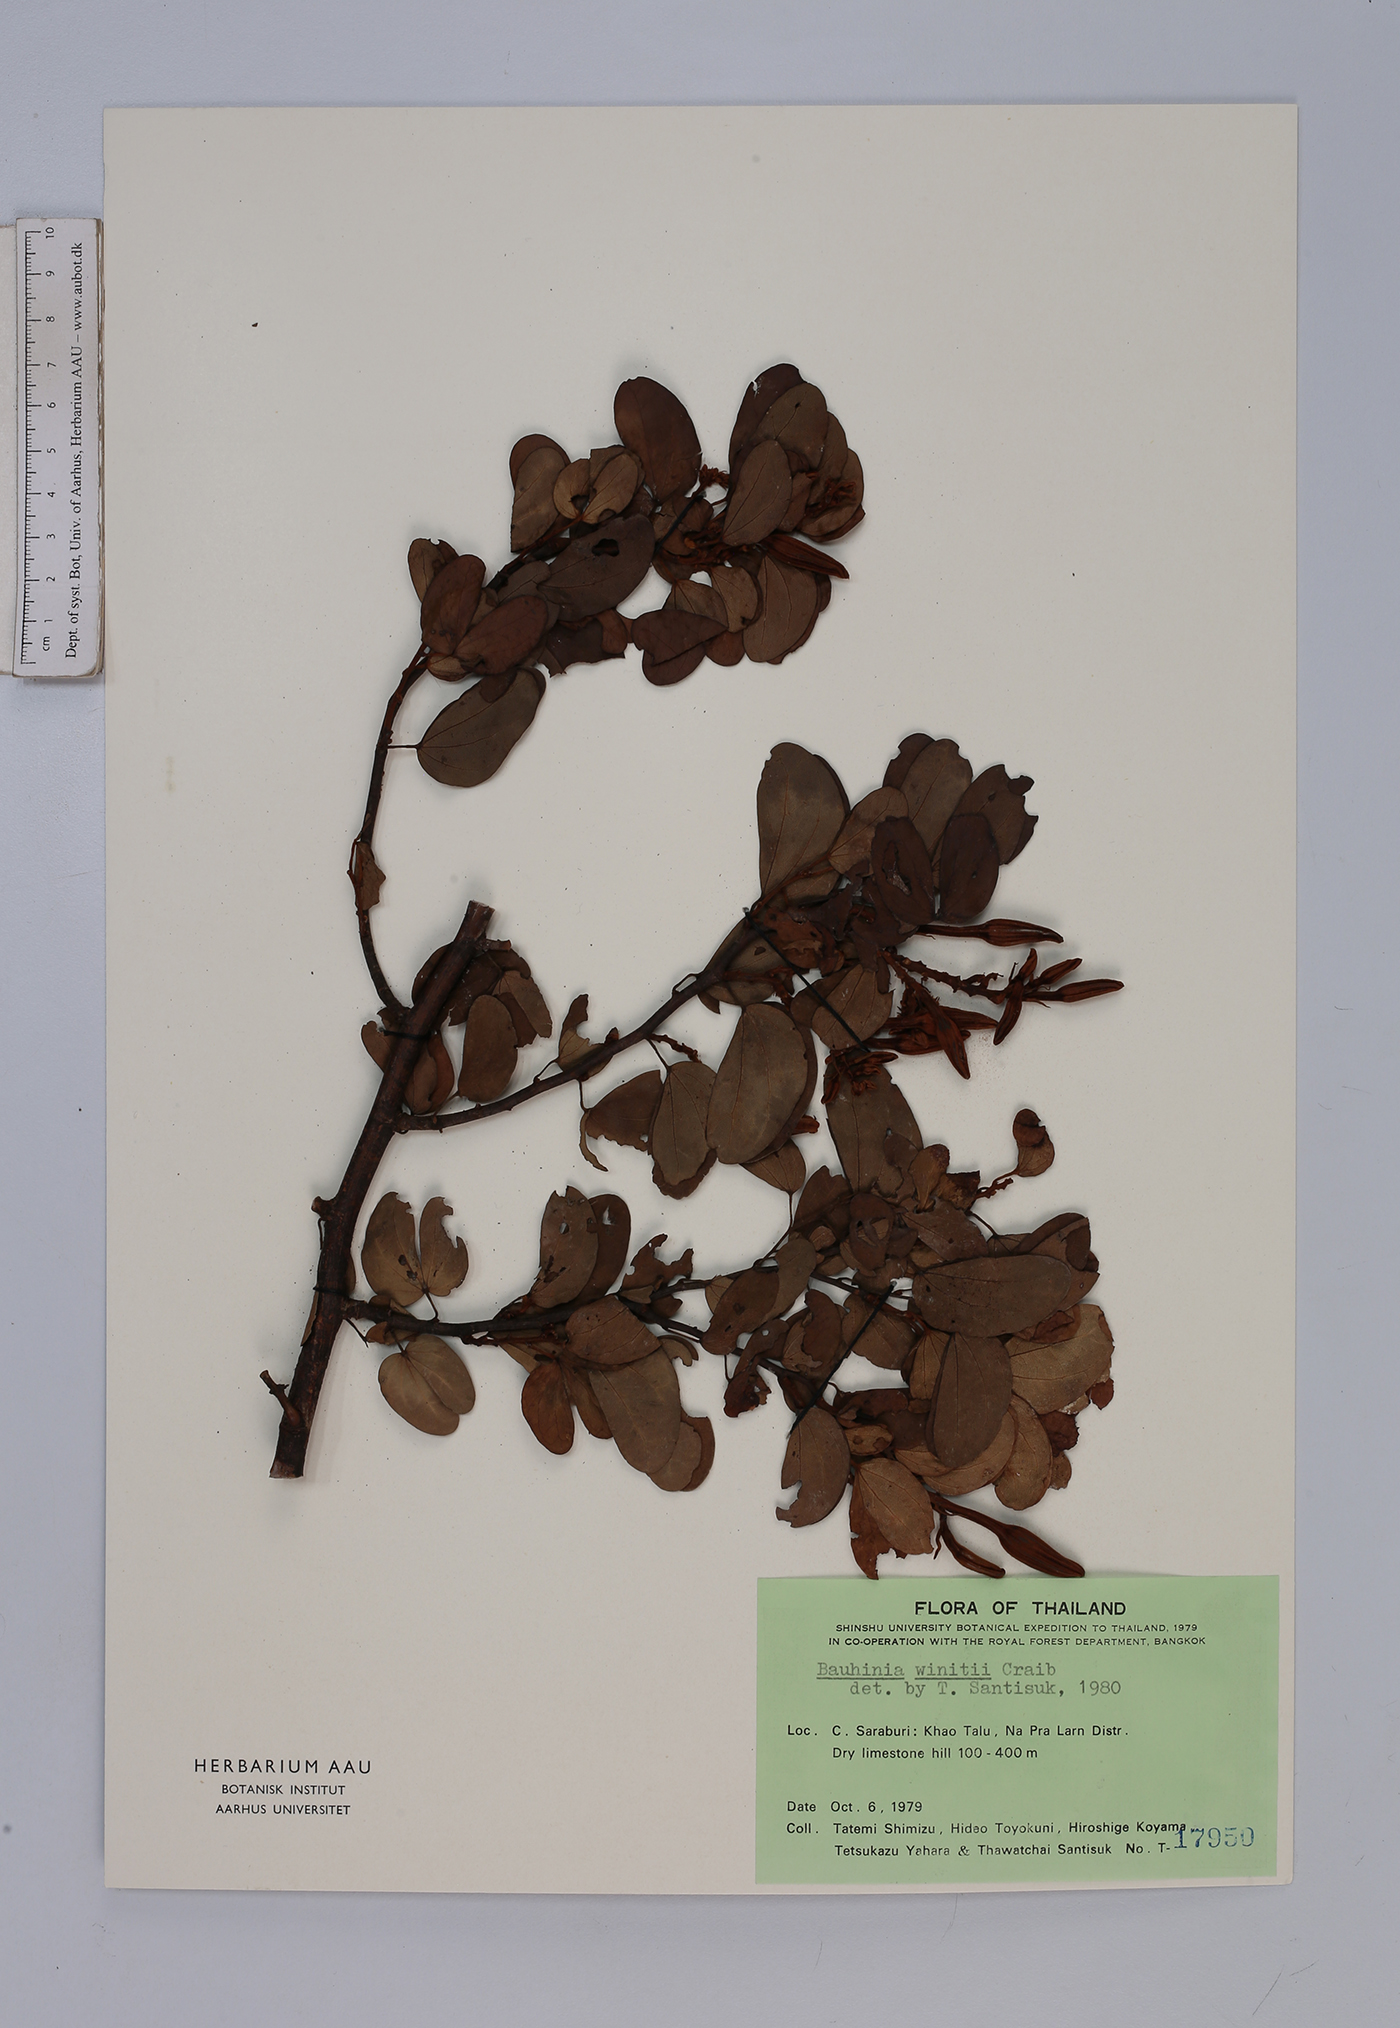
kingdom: Plantae
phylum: Tracheophyta
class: Magnoliopsida
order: Fabales
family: Fabaceae
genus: Lysiphyllum
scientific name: Lysiphyllum winitii
